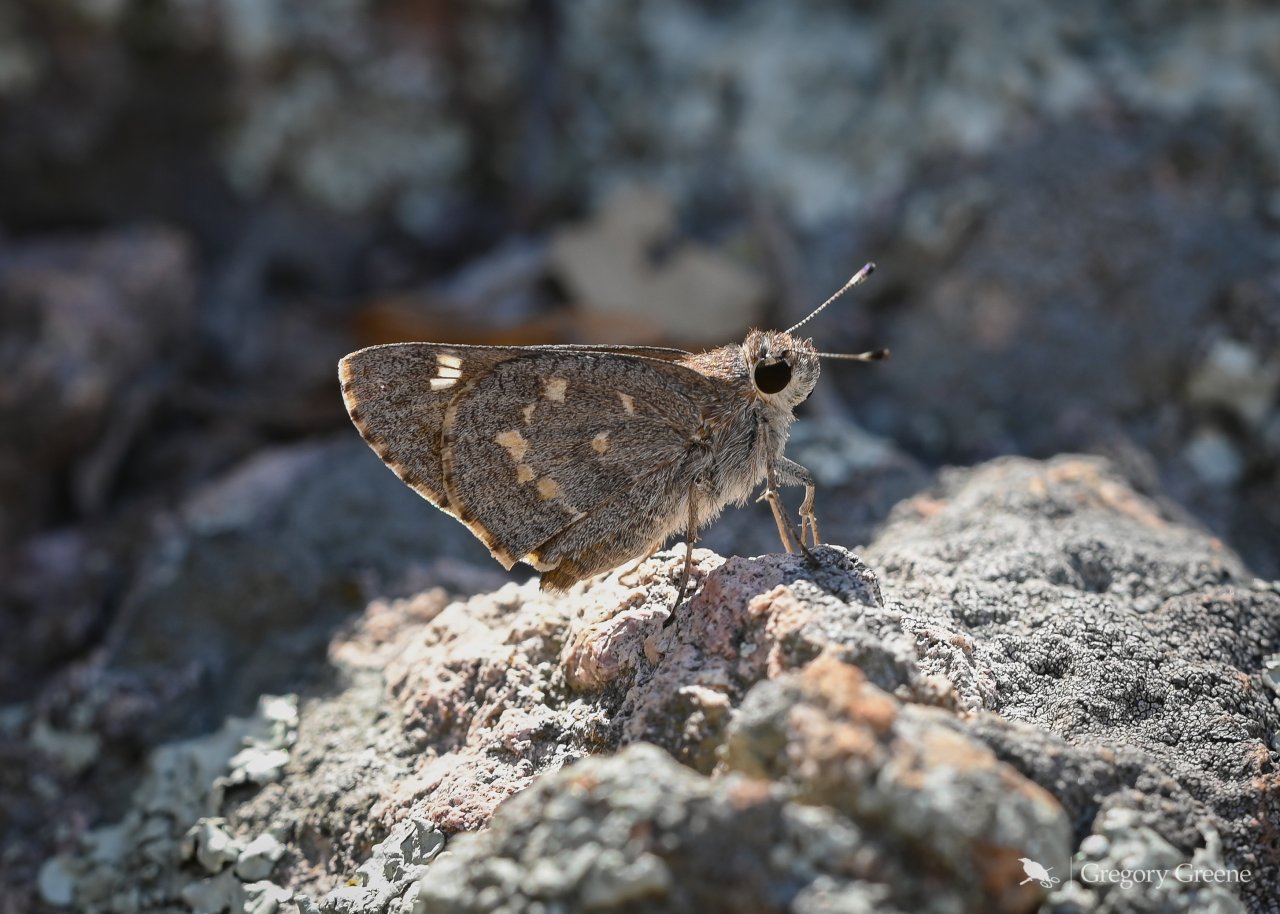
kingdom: Animalia
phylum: Arthropoda
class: Insecta
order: Lepidoptera
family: Hesperiidae
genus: Atrytonopsis
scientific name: Atrytonopsis ovinia
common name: Sheep Skipper
